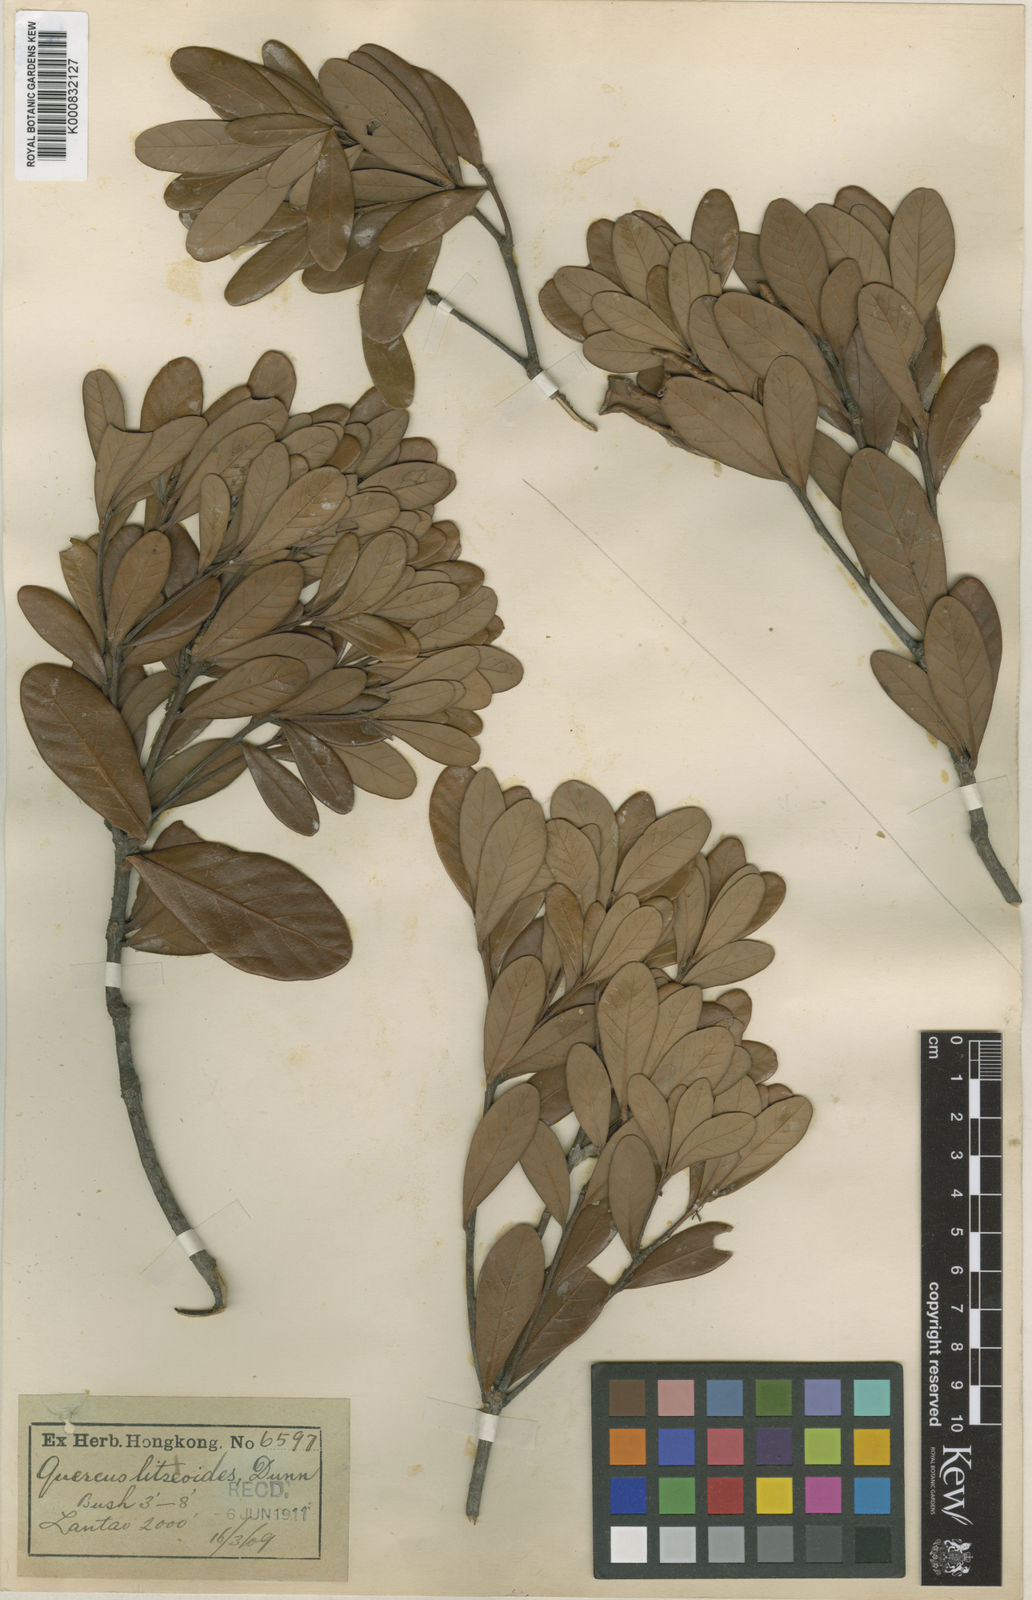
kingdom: Plantae
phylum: Tracheophyta
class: Magnoliopsida
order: Fagales
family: Fagaceae
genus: Quercus
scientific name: Quercus litseoides
